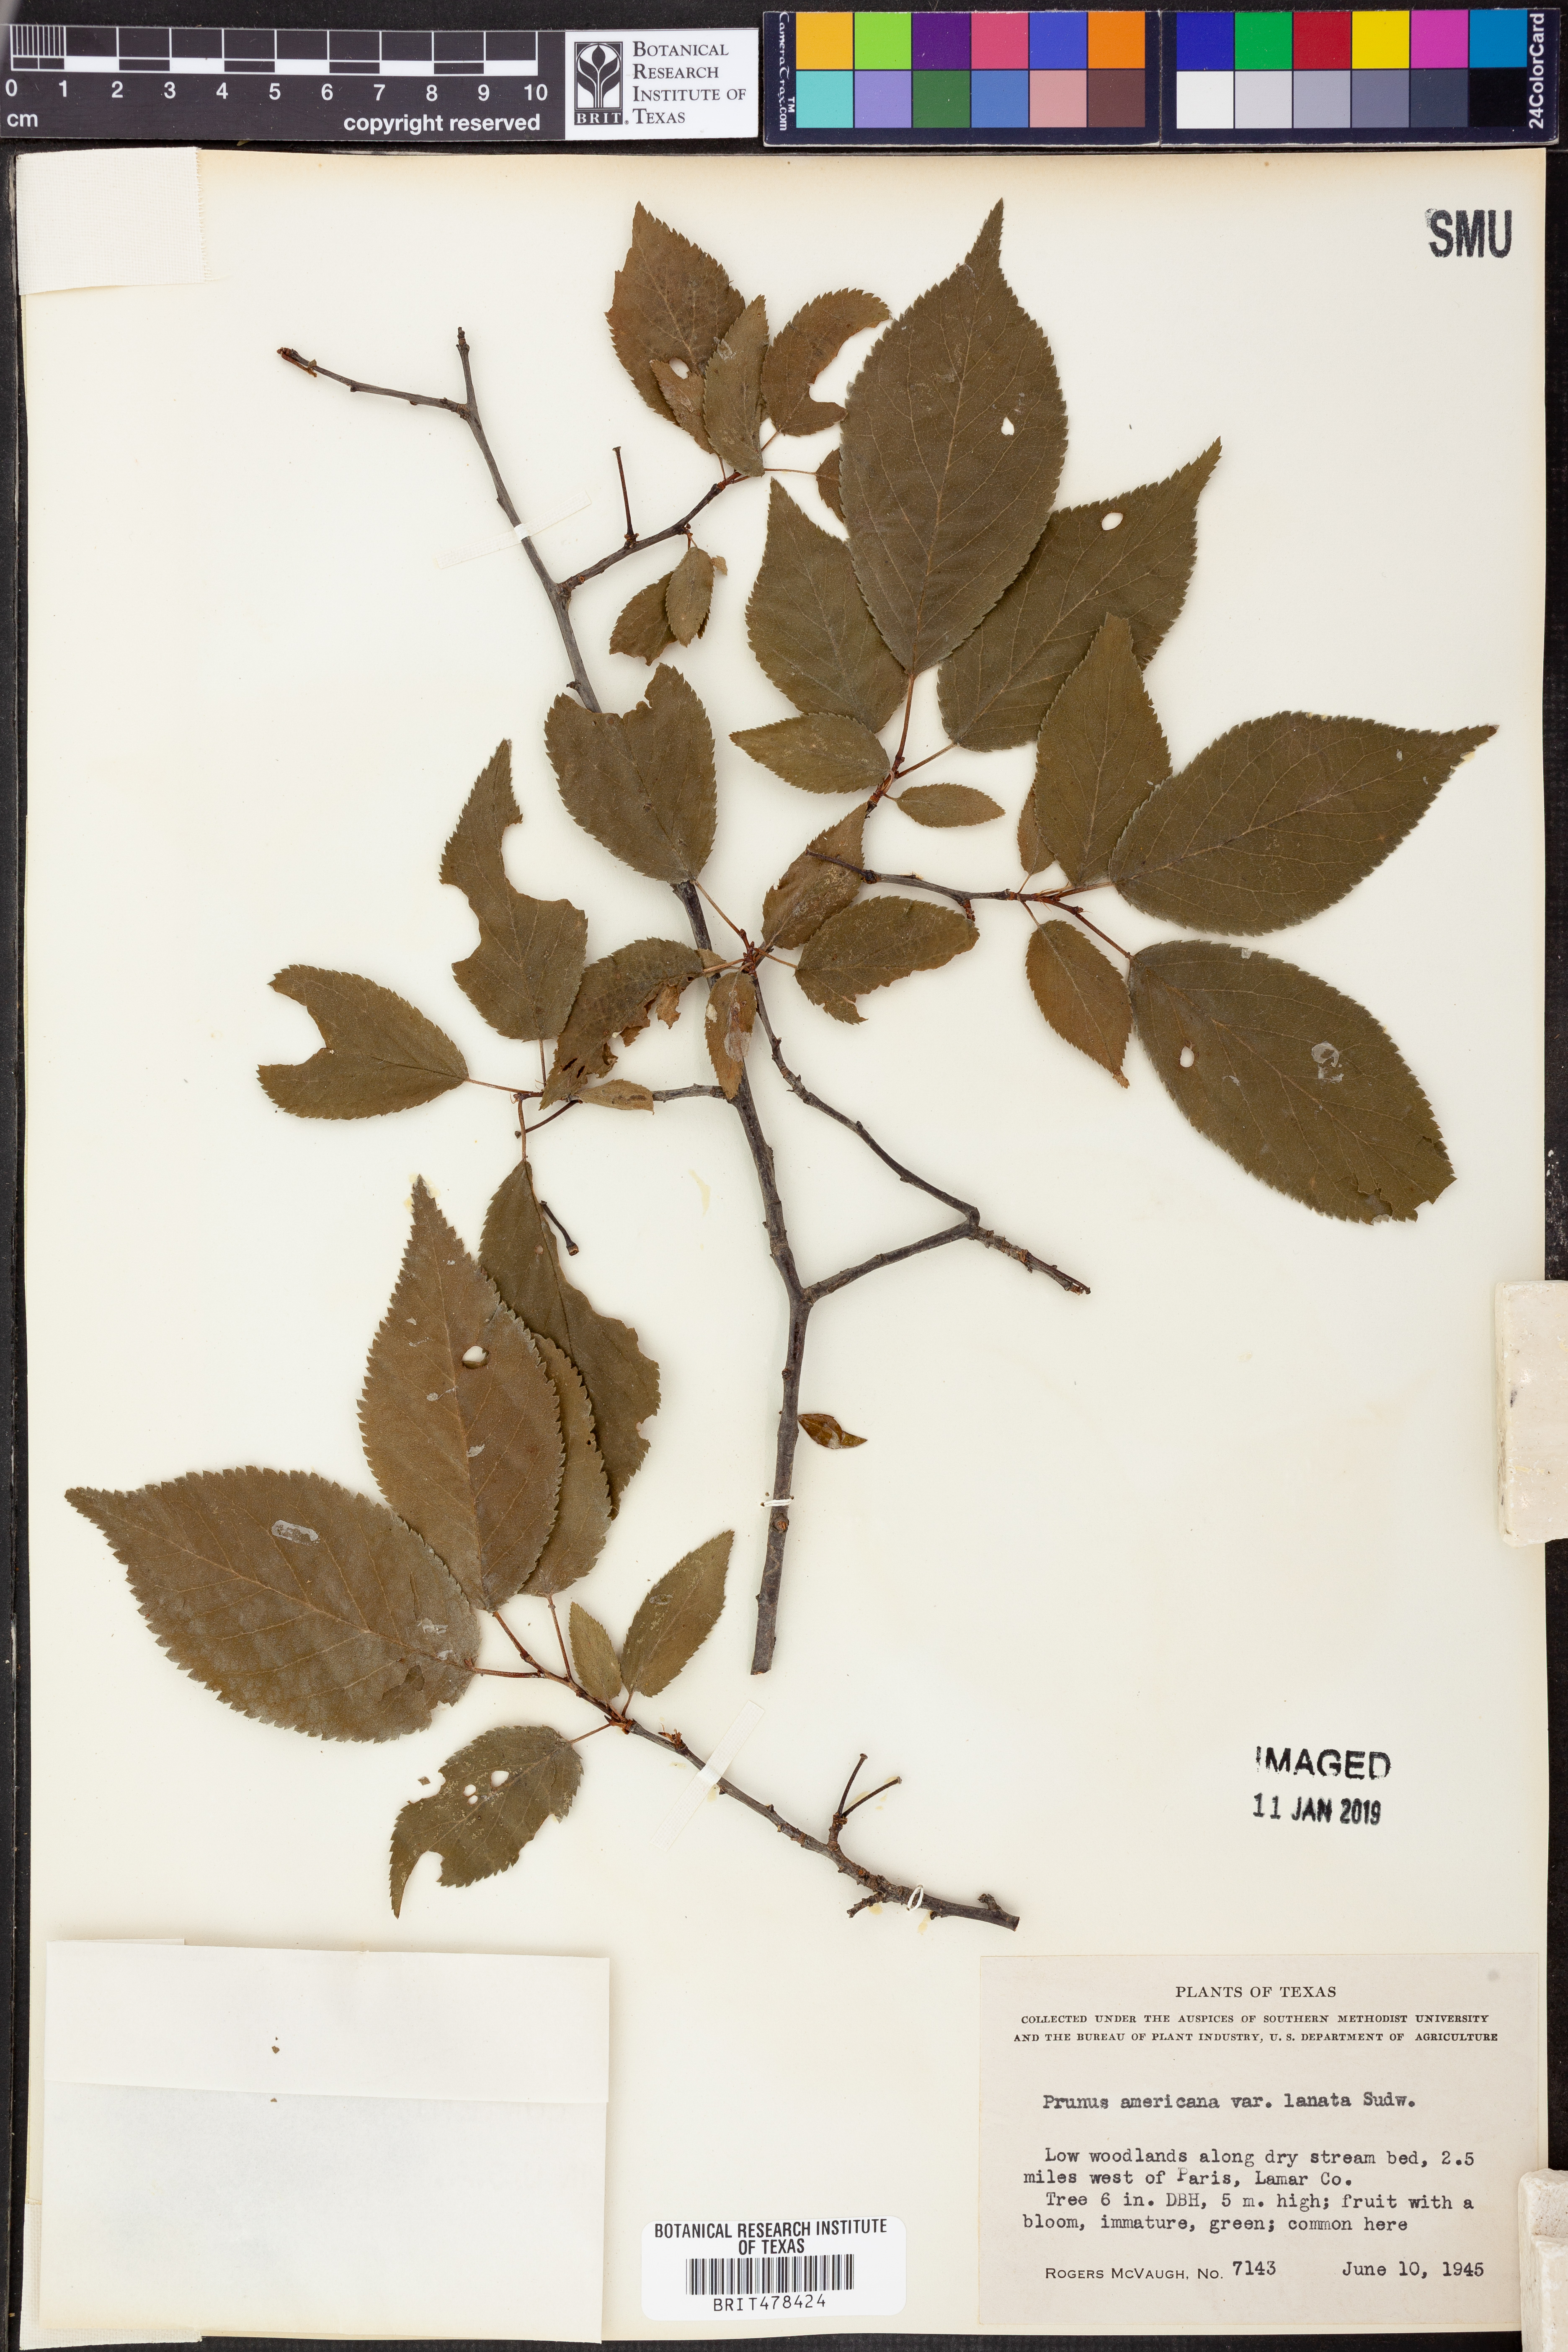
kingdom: Plantae
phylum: Tracheophyta
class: Magnoliopsida
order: Rosales
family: Rosaceae
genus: Prunus
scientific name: Prunus mexicana
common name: Mexican plum
